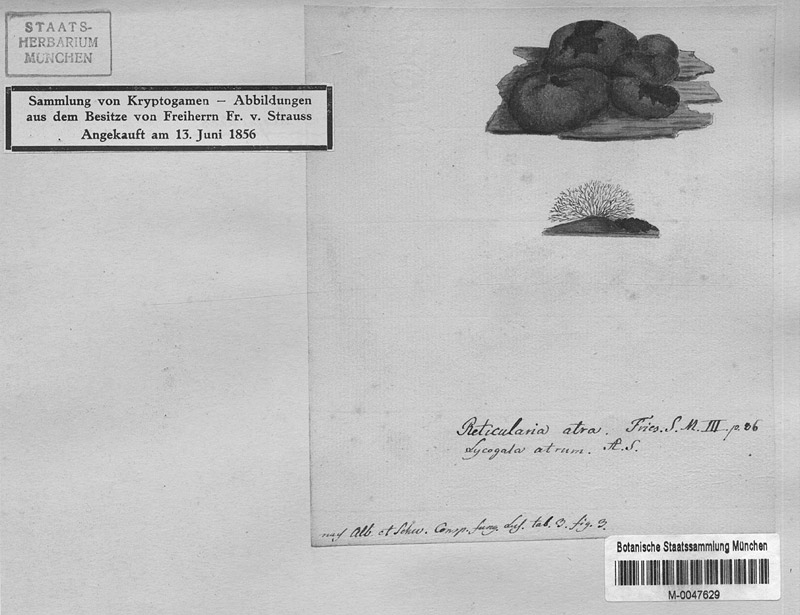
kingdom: Protozoa
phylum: Mycetozoa
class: Myxomycetes
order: Stemonitidales
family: Stemonitidaceae
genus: Amaurochaete
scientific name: Amaurochaete atra
